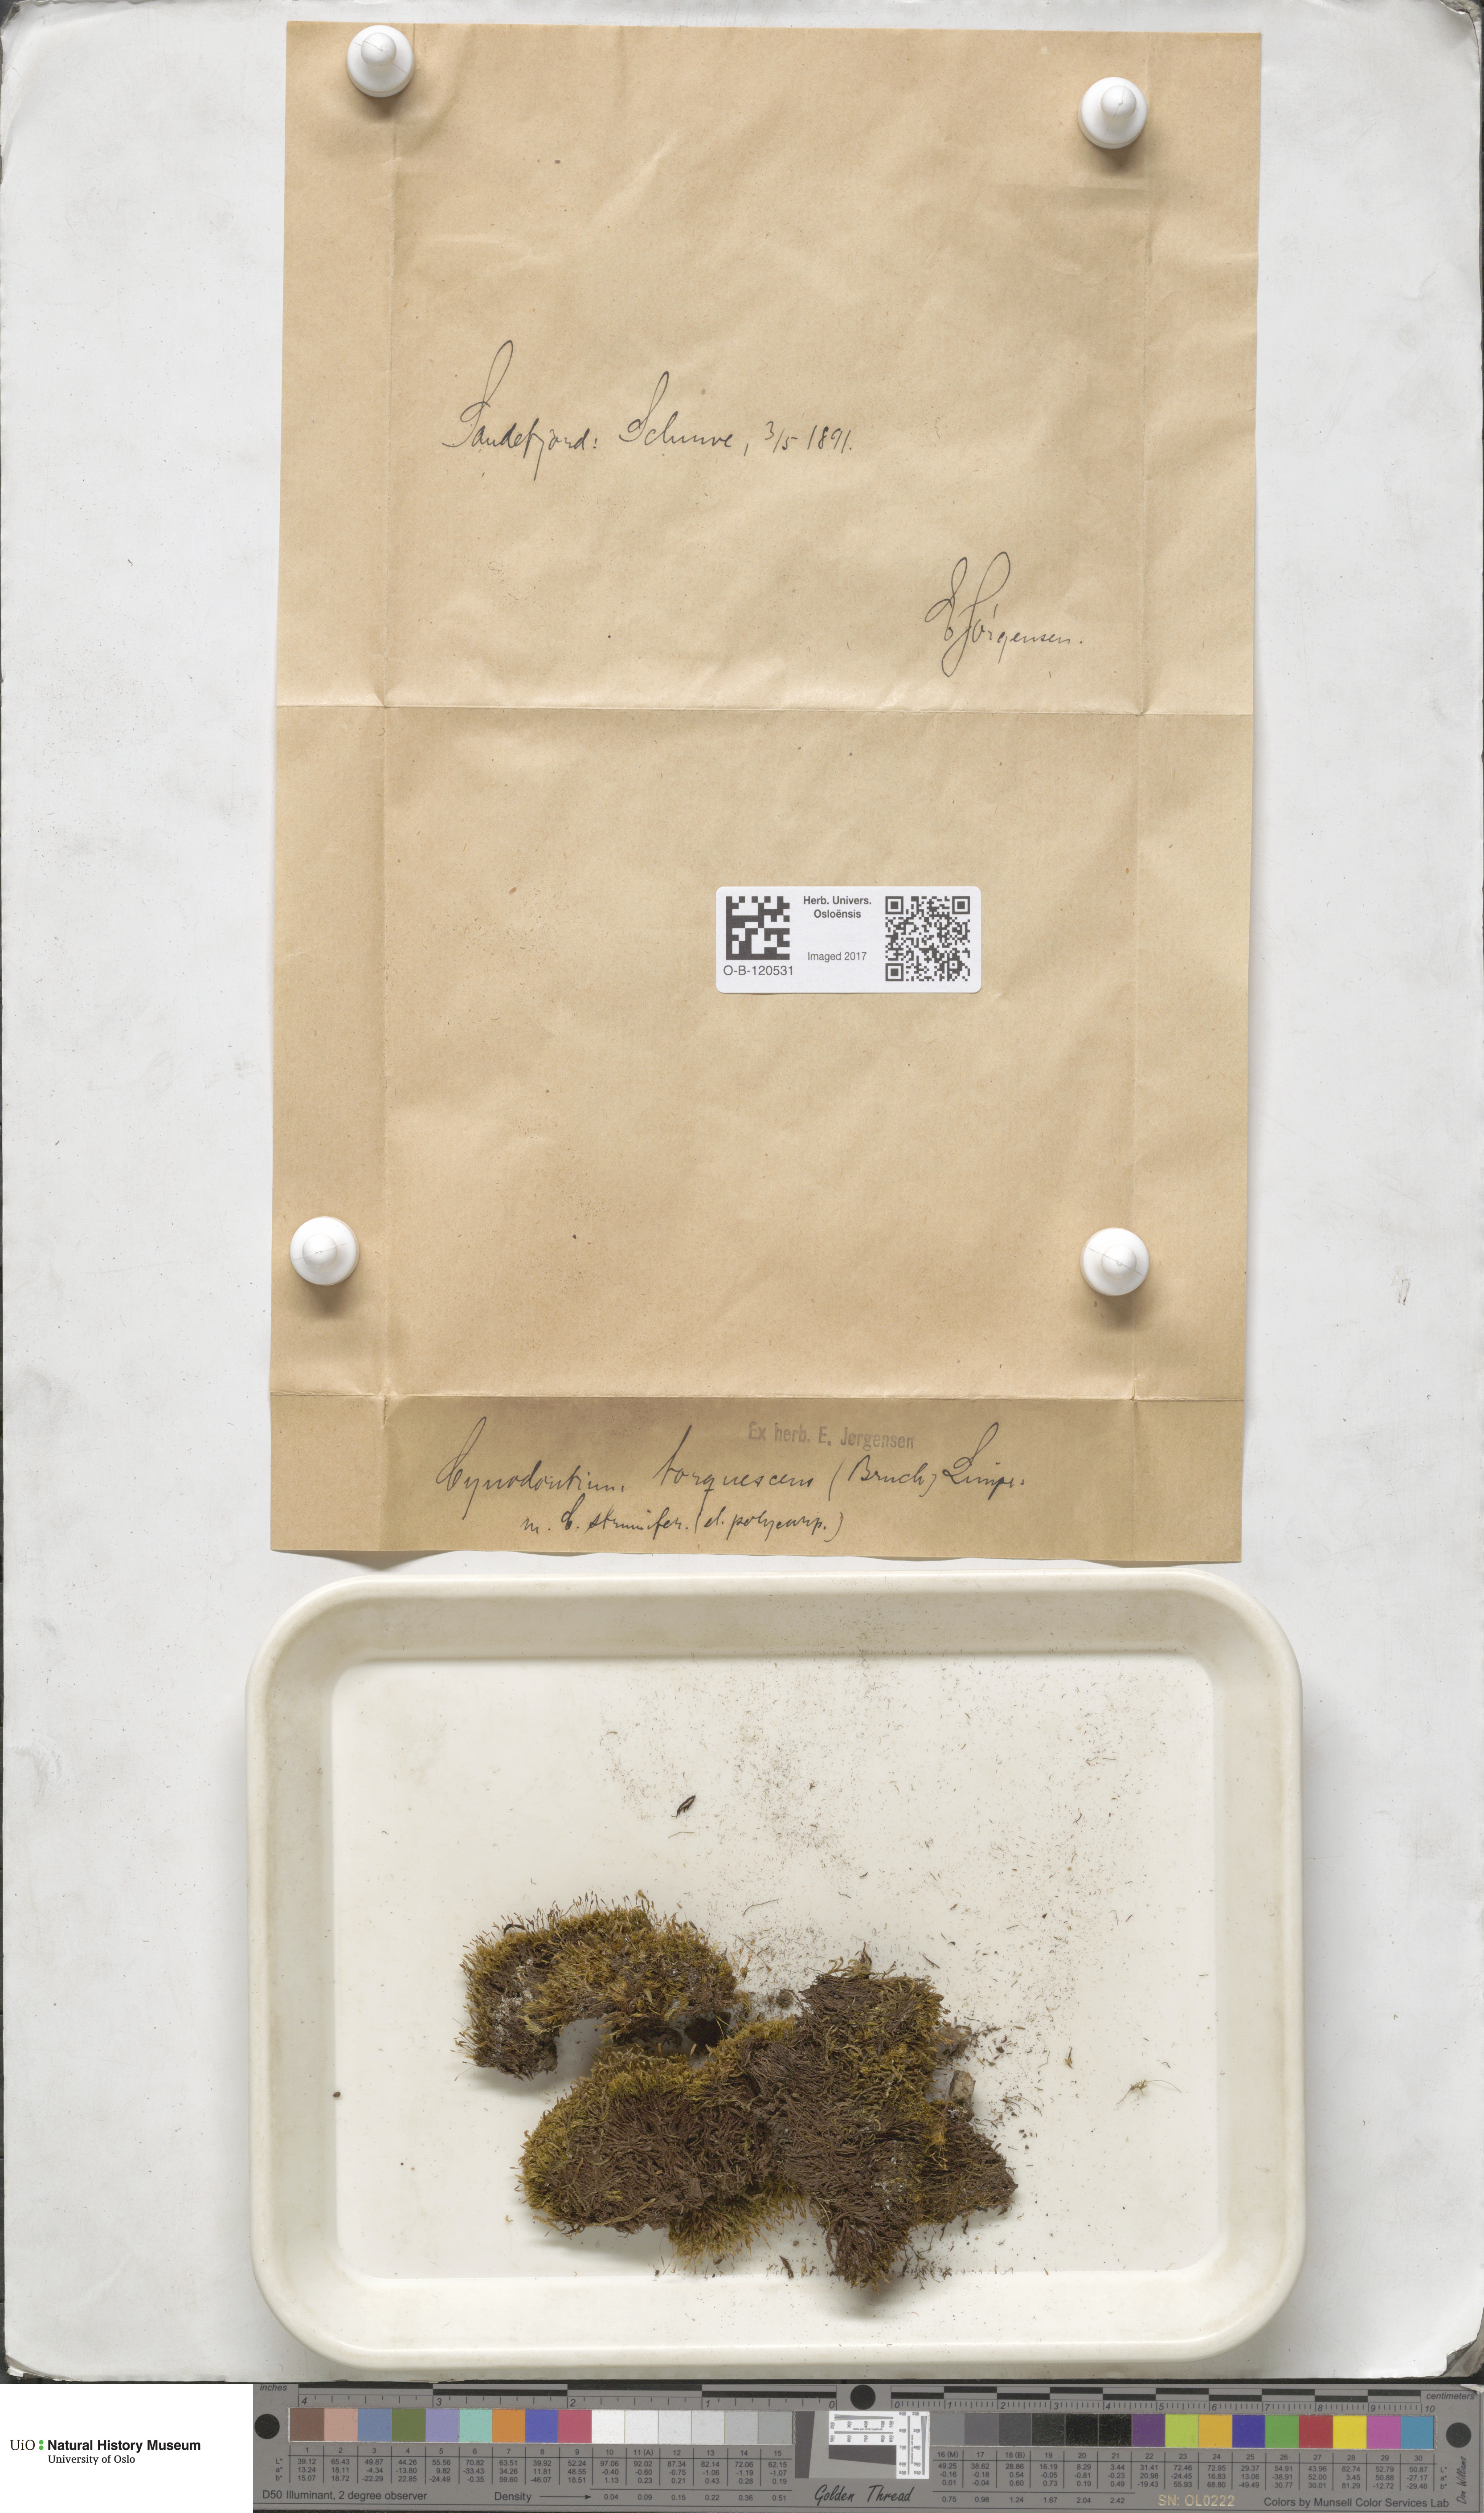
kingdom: Plantae
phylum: Bryophyta
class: Bryopsida
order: Dicranales
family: Rhabdoweisiaceae
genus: Cynodontium
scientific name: Cynodontium tenellum
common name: Delicate dogtooth moss
